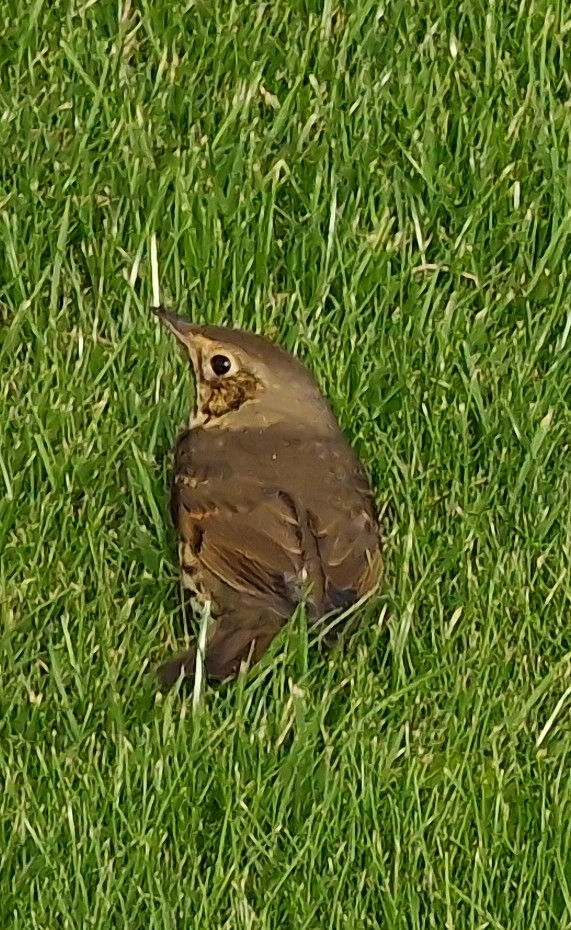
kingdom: Animalia
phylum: Chordata
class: Aves
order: Passeriformes
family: Turdidae
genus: Turdus
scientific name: Turdus philomelos
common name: Sangdrossel
